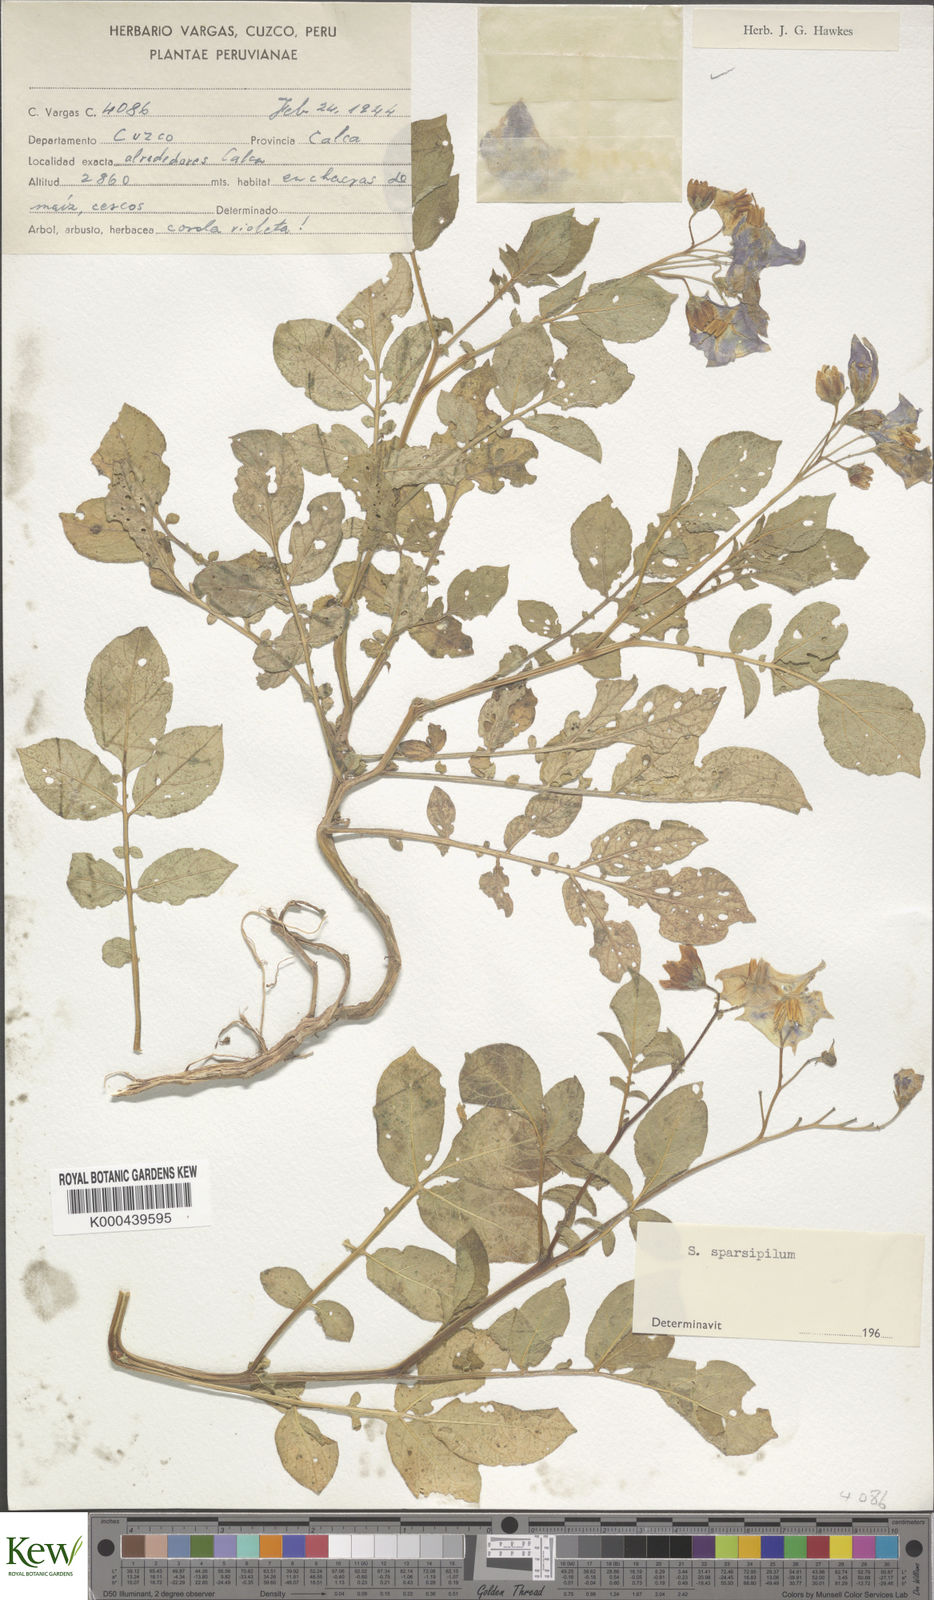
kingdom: Plantae
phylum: Tracheophyta
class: Magnoliopsida
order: Solanales
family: Solanaceae
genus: Solanum
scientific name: Solanum brevicaule
